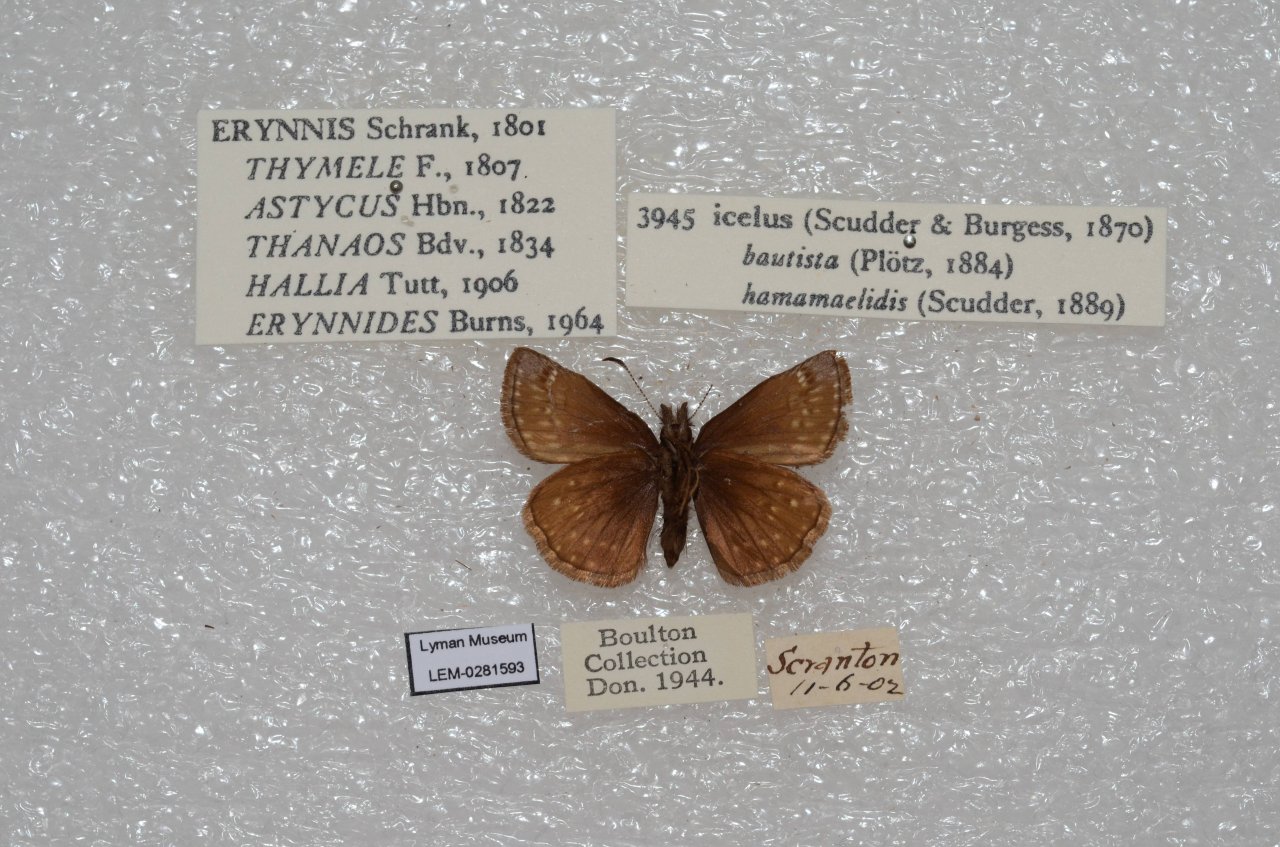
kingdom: Animalia
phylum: Arthropoda
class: Insecta
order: Lepidoptera
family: Hesperiidae
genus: Erynnis
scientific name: Erynnis icelus
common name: Dreamy Duskywing
